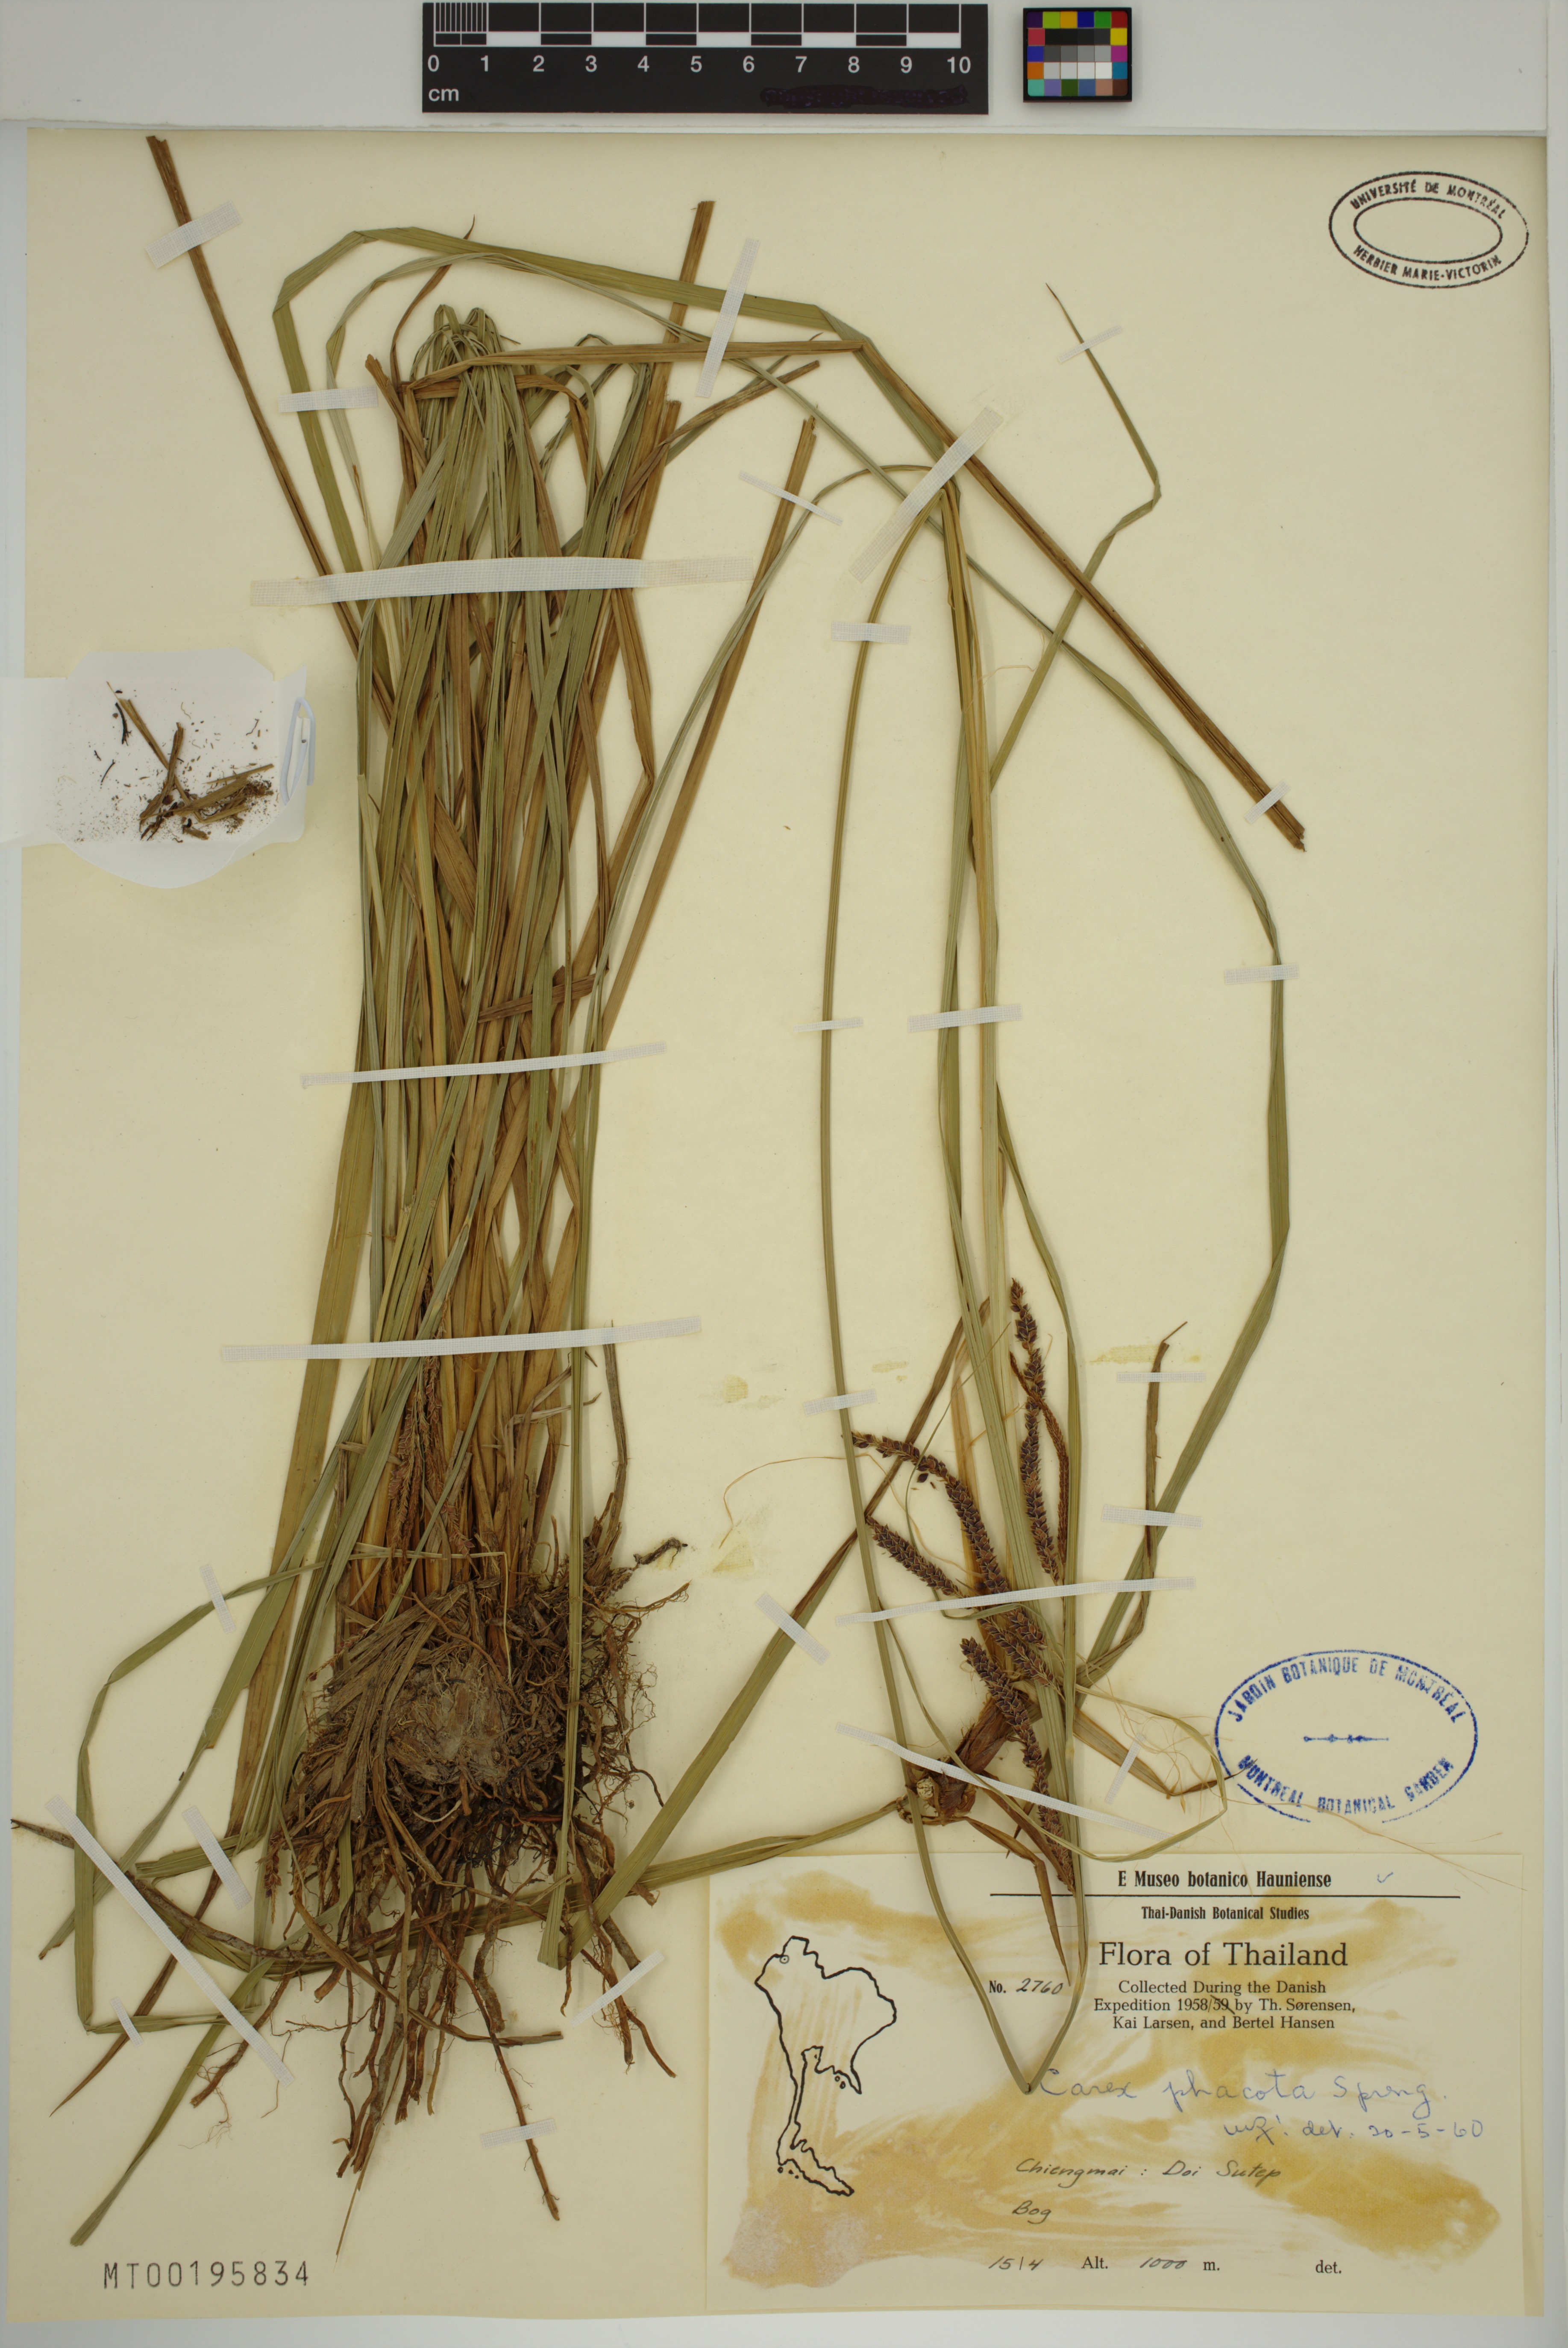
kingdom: Plantae
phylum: Tracheophyta
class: Liliopsida
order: Poales
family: Cyperaceae
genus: Carex
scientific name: Carex phacota
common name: Lakeshore sedge
